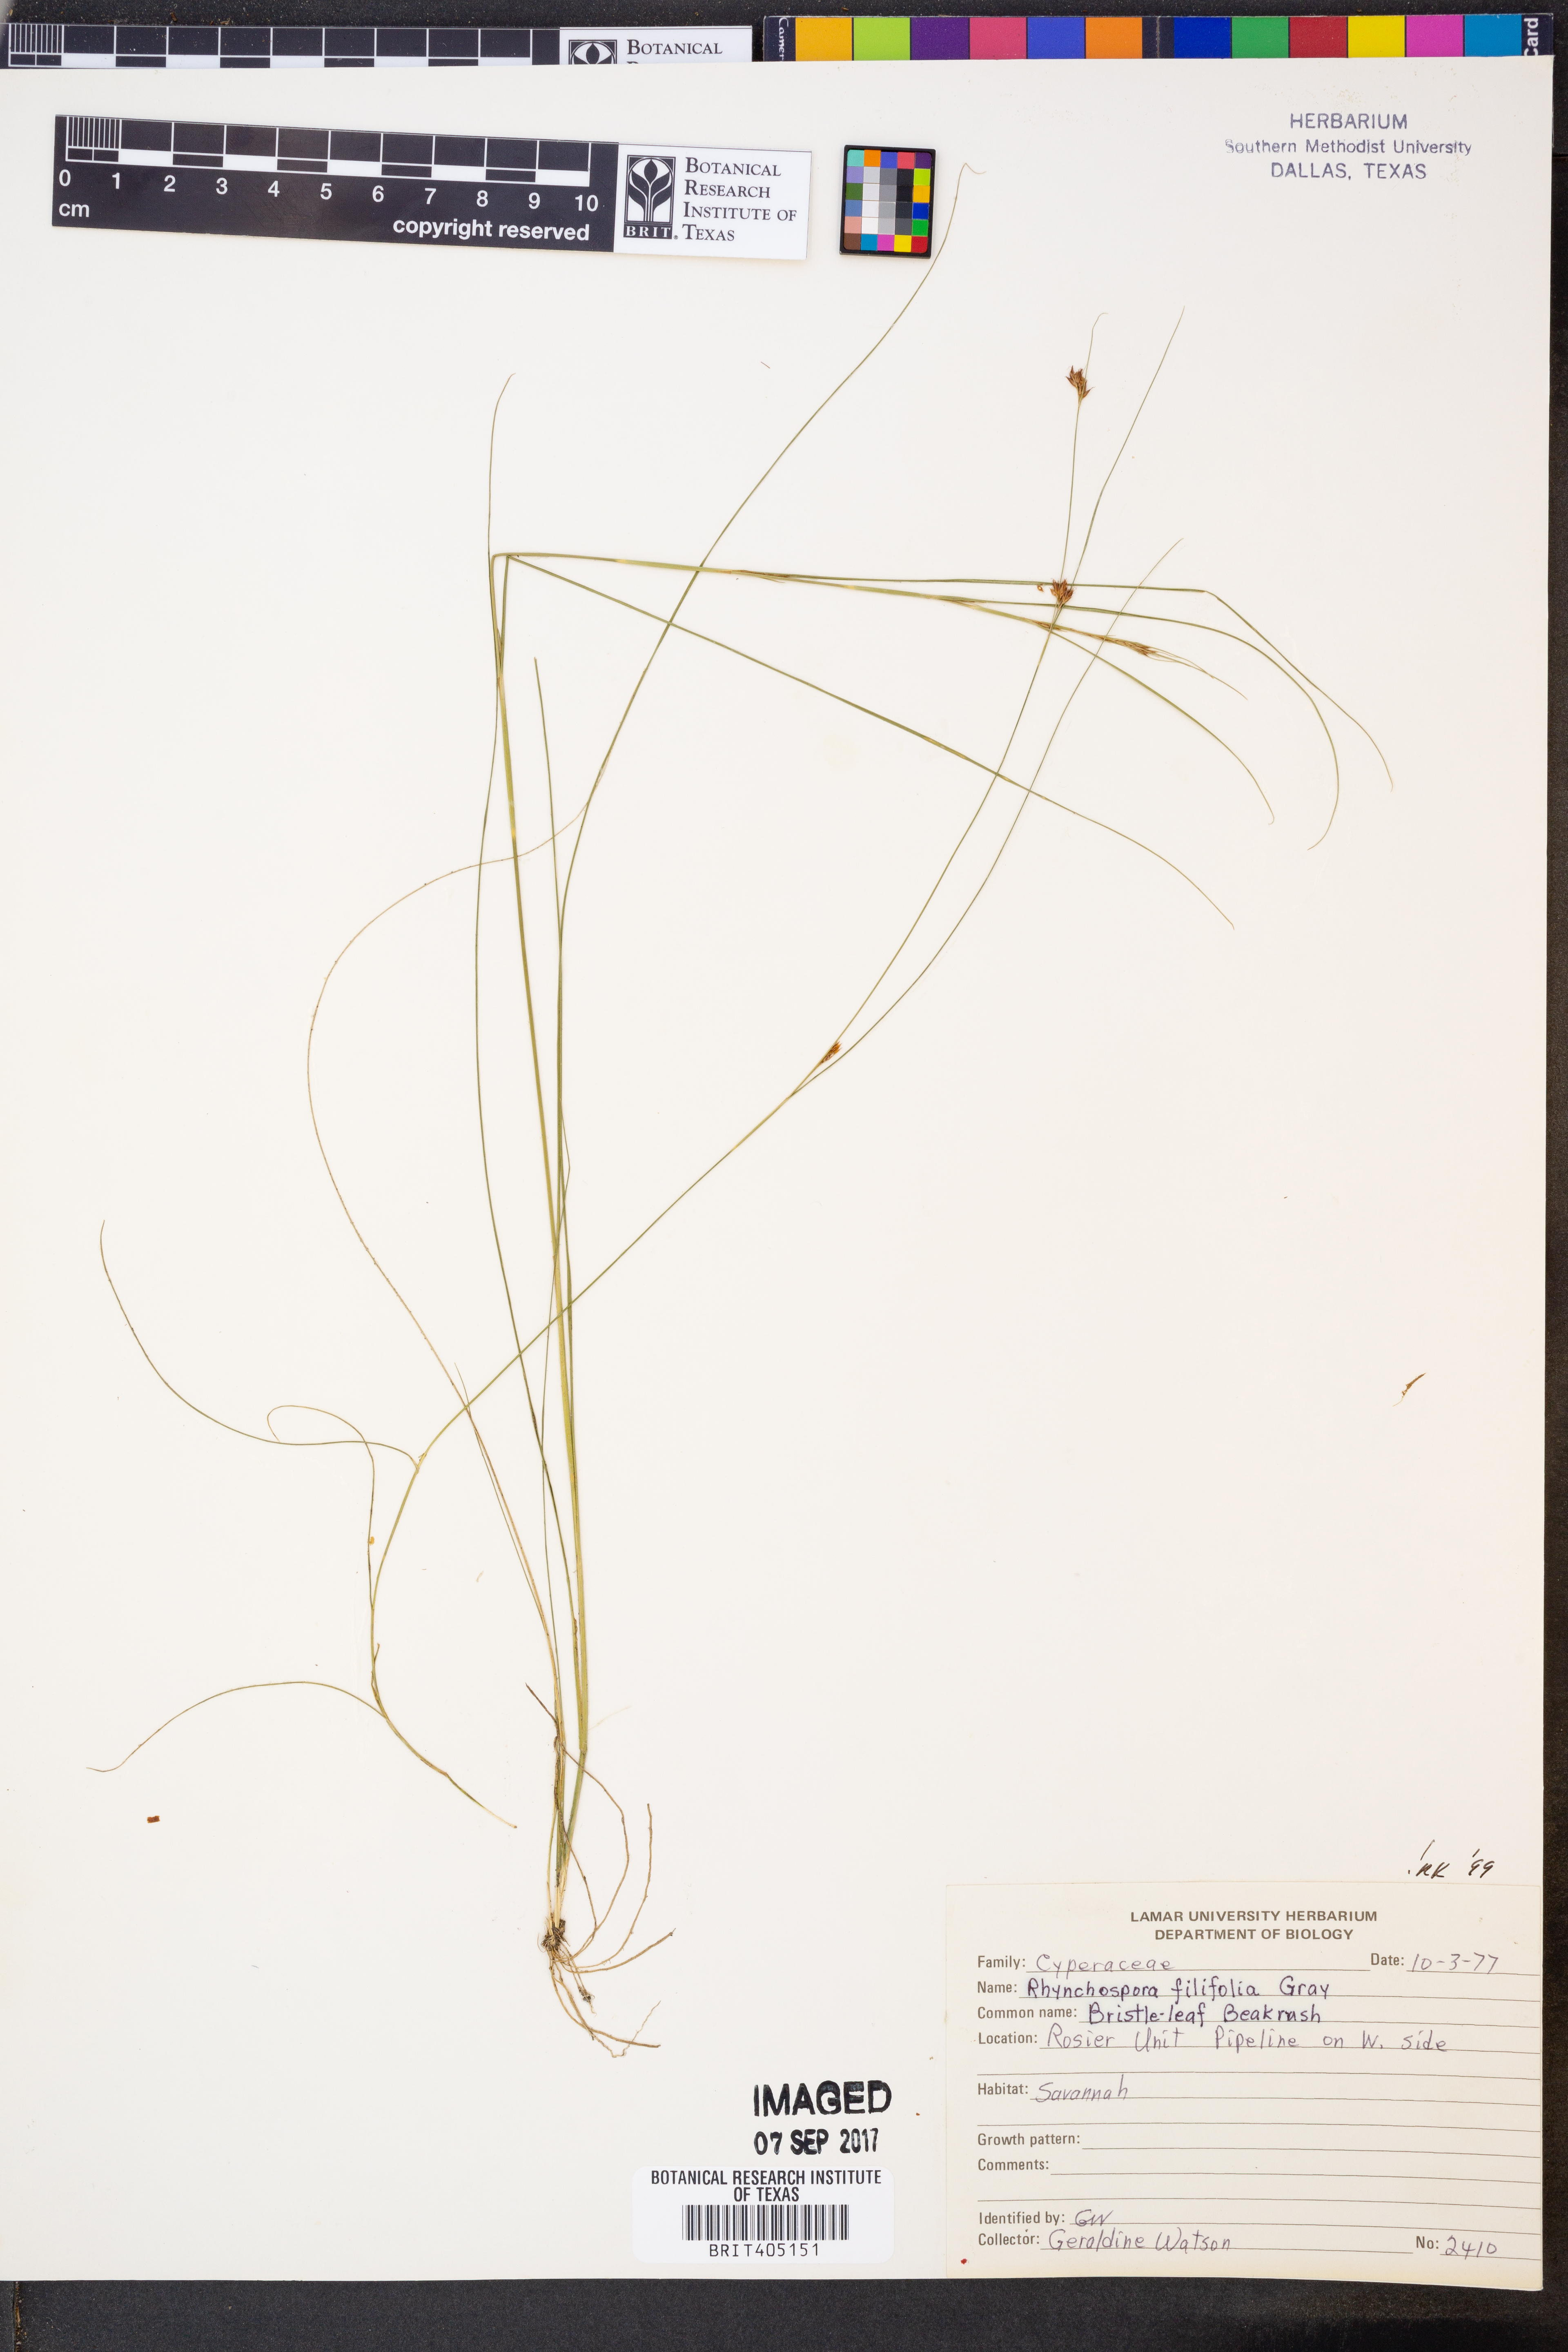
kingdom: Plantae
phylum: Tracheophyta
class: Liliopsida
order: Poales
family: Cyperaceae
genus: Rhynchospora
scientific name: Rhynchospora filifolia
